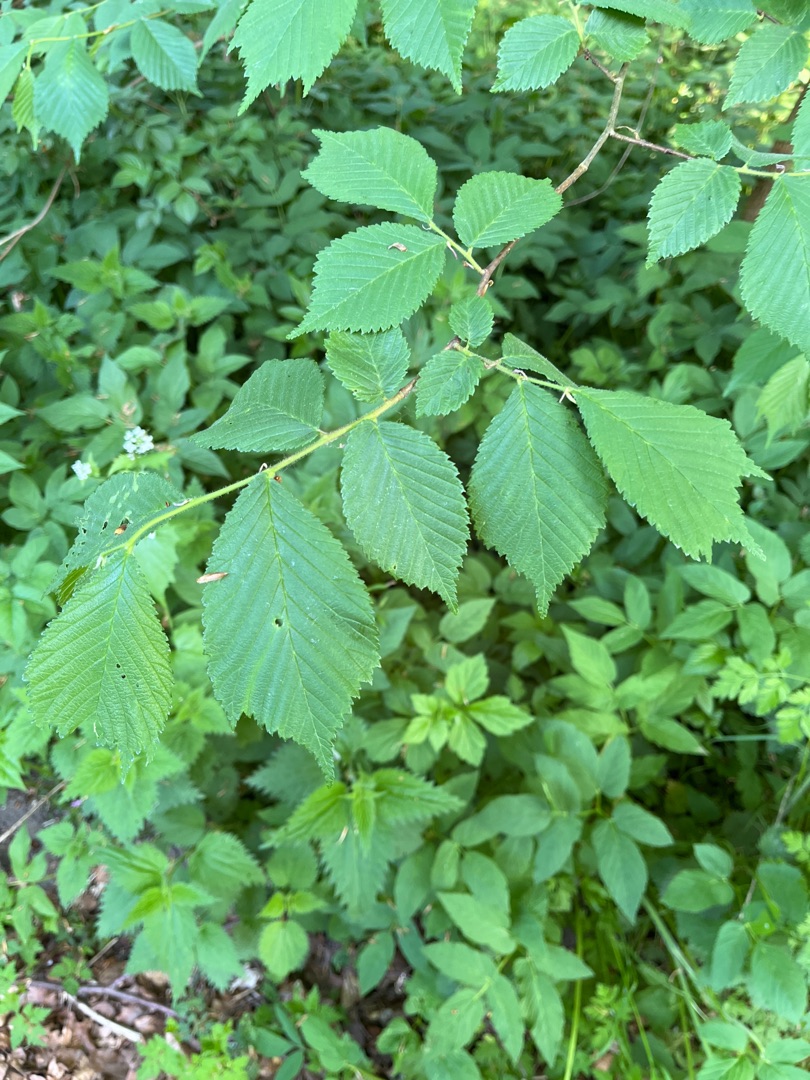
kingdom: Plantae
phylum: Tracheophyta
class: Magnoliopsida
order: Rosales
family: Ulmaceae
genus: Ulmus
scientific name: Ulmus glabra
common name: Skov-elm/storbladet elm
